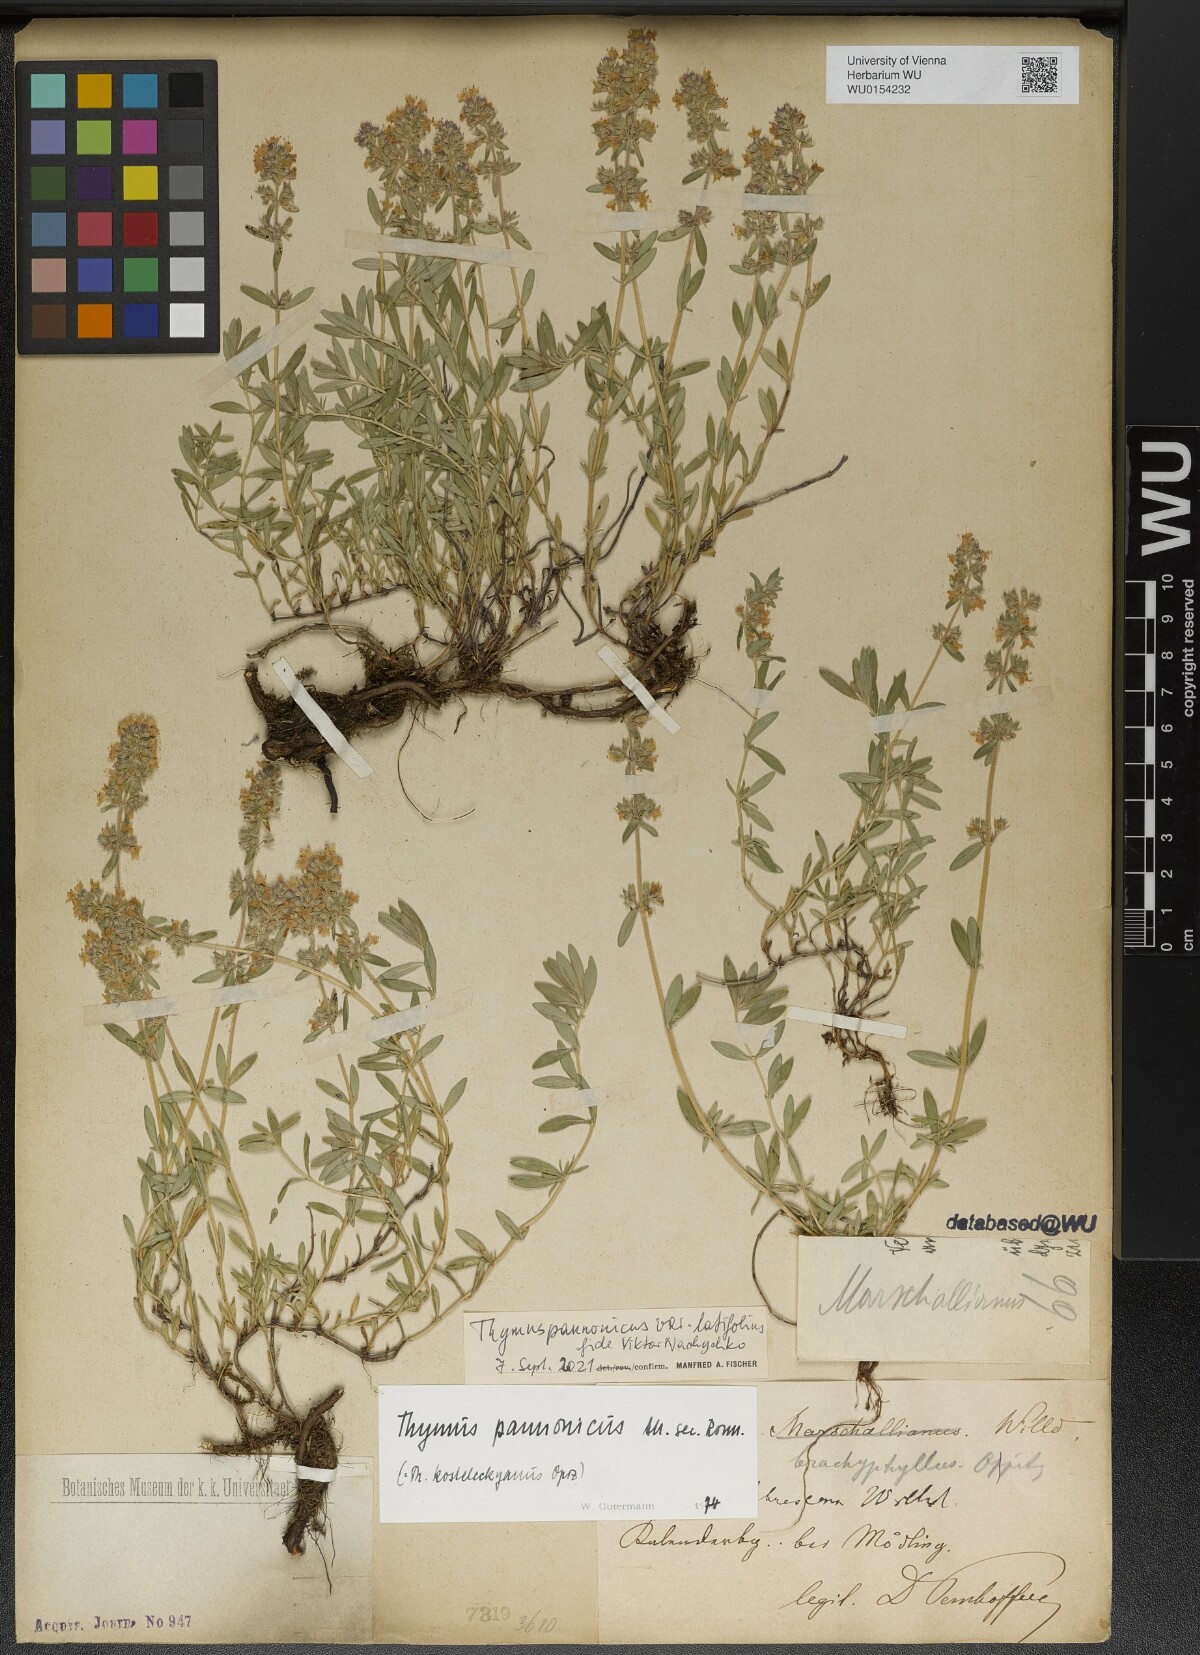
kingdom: Plantae
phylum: Tracheophyta
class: Magnoliopsida
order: Lamiales
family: Lamiaceae
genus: Thymus
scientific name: Thymus pannonicus
